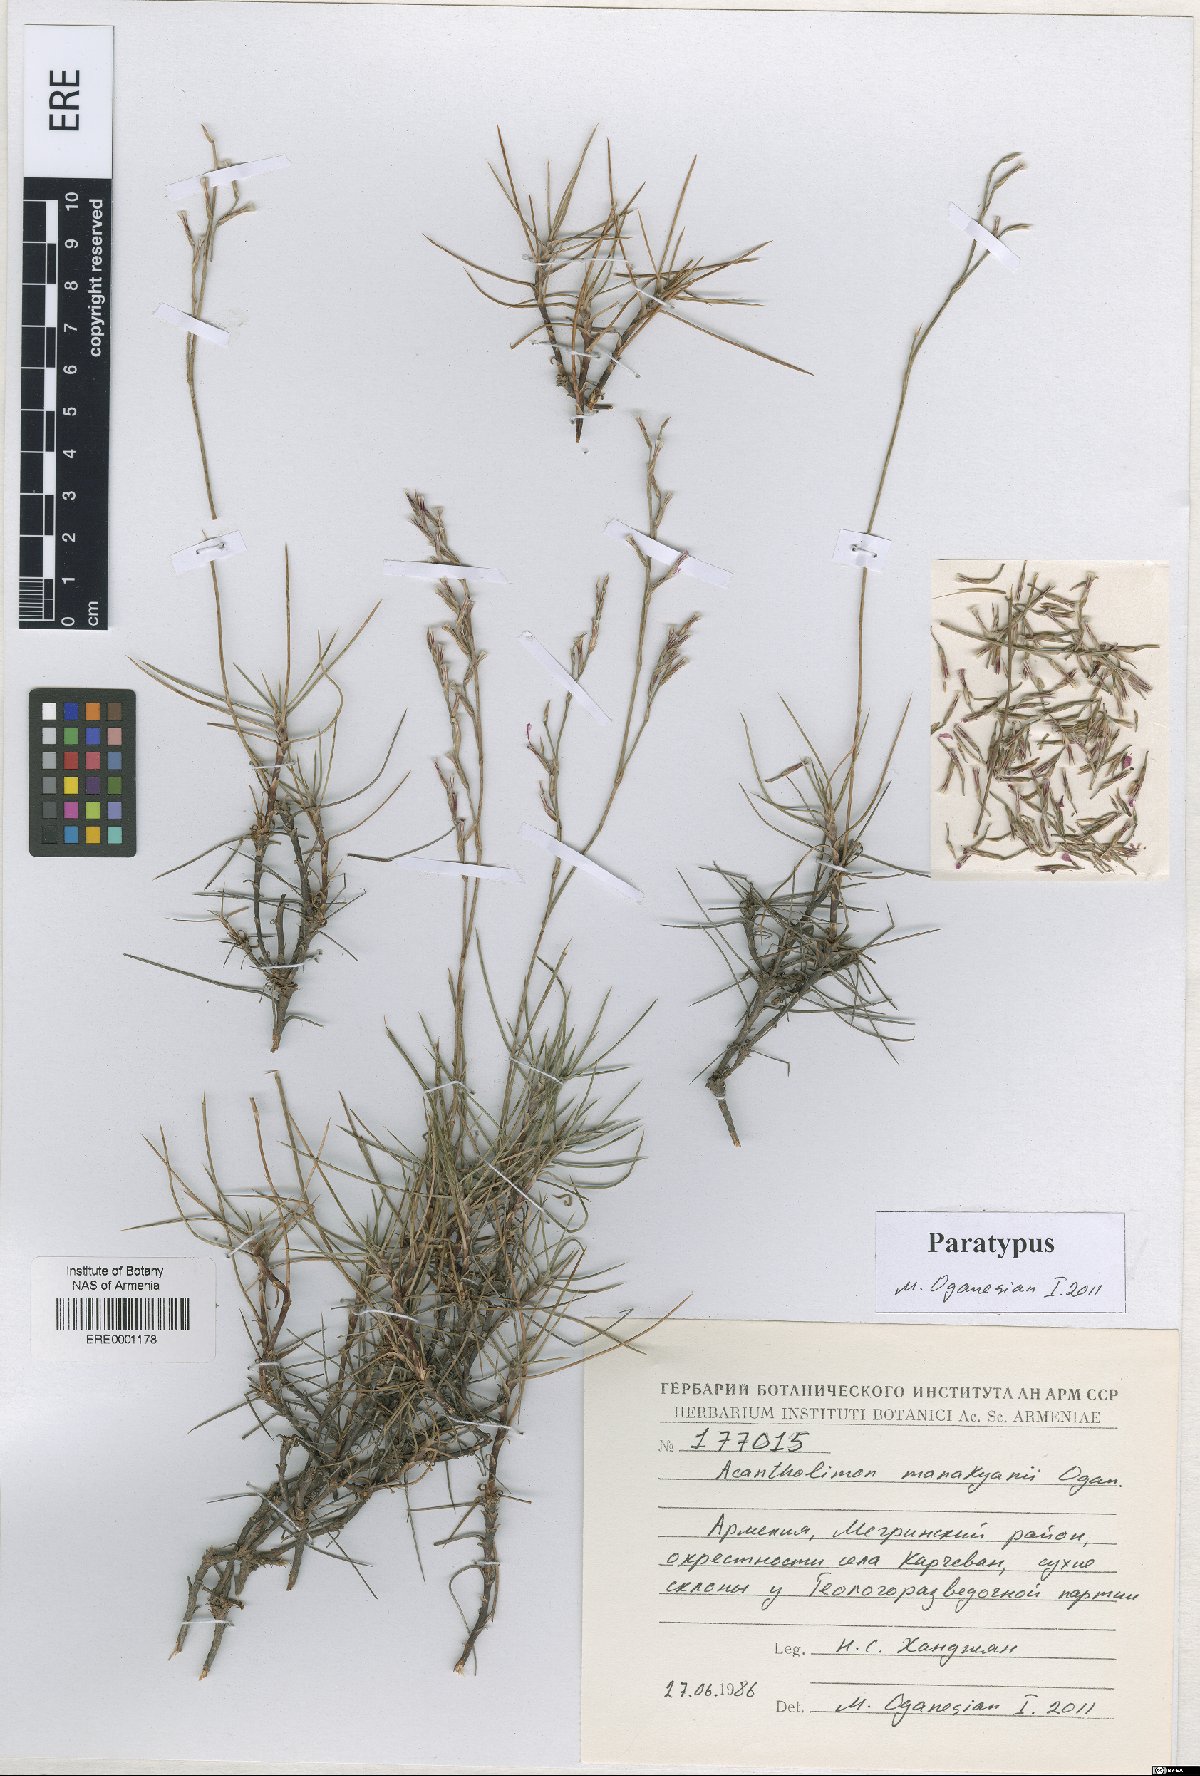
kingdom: Plantae
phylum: Tracheophyta
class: Magnoliopsida
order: Caryophyllales
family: Plumbaginaceae
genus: Acantholimon
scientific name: Acantholimon manakyanii
